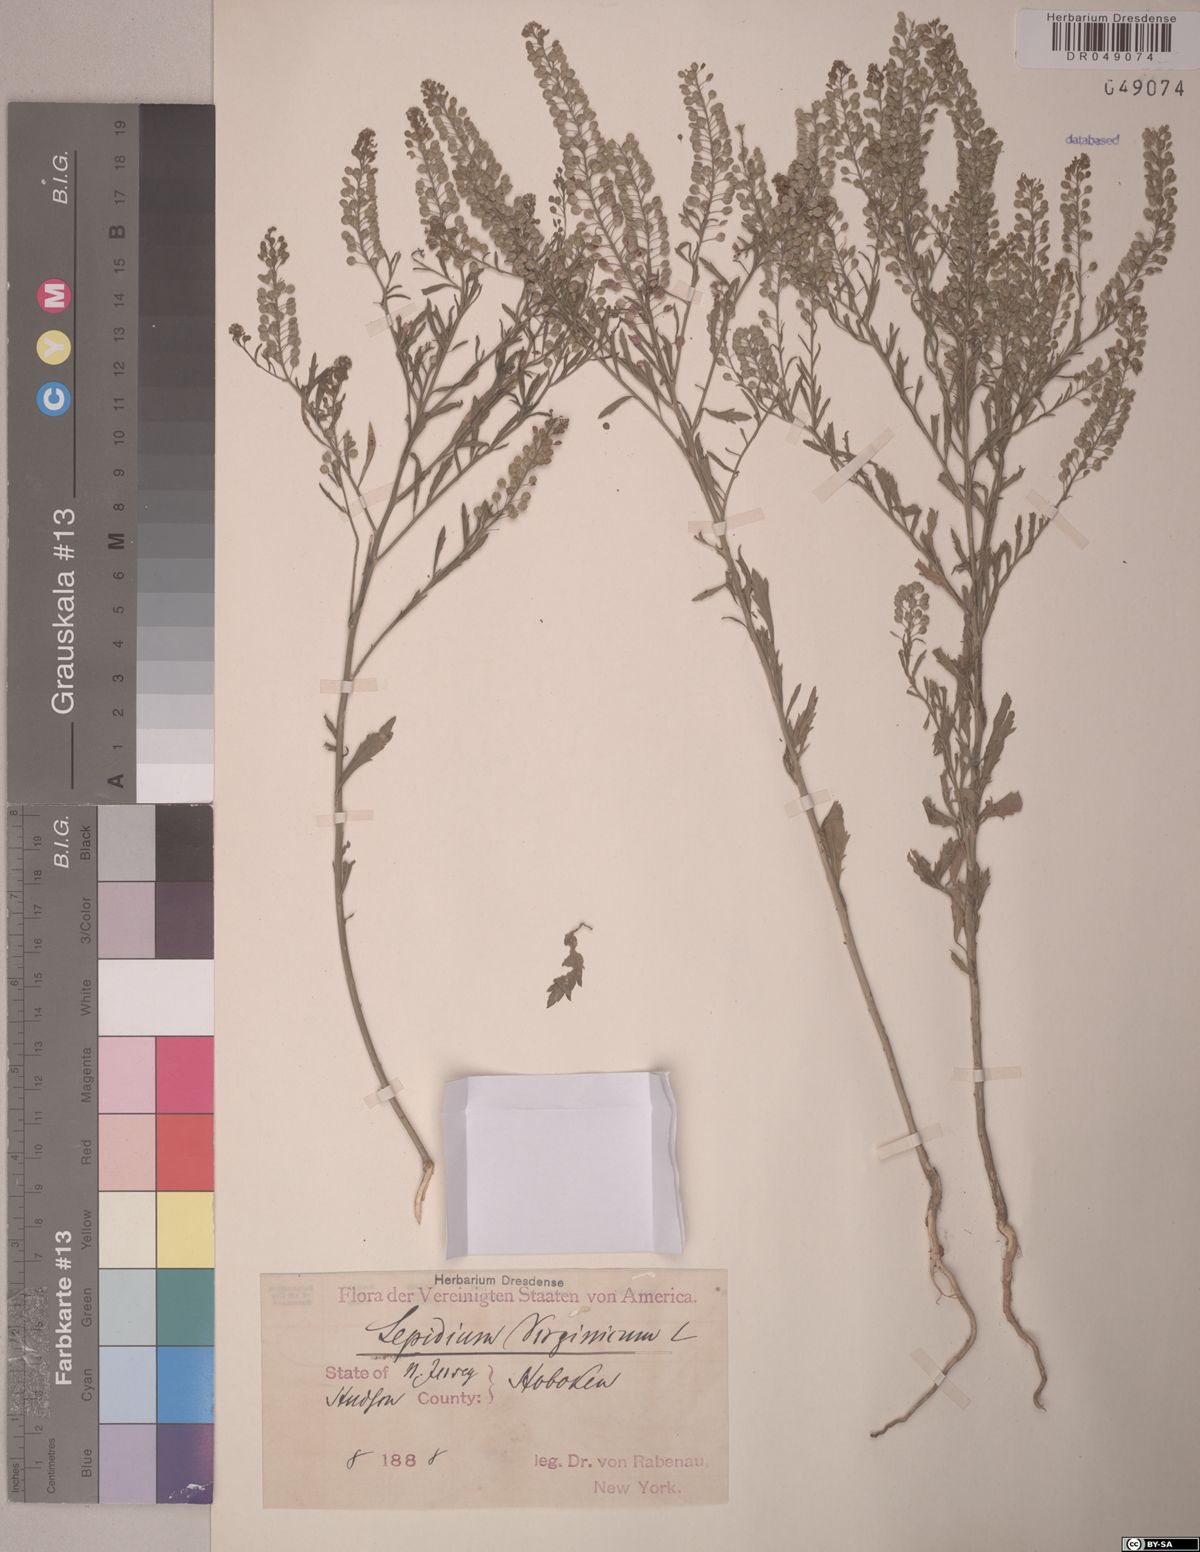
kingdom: Plantae
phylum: Tracheophyta
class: Magnoliopsida
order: Brassicales
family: Brassicaceae
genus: Lepidium
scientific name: Lepidium virginicum
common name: Least pepperwort
